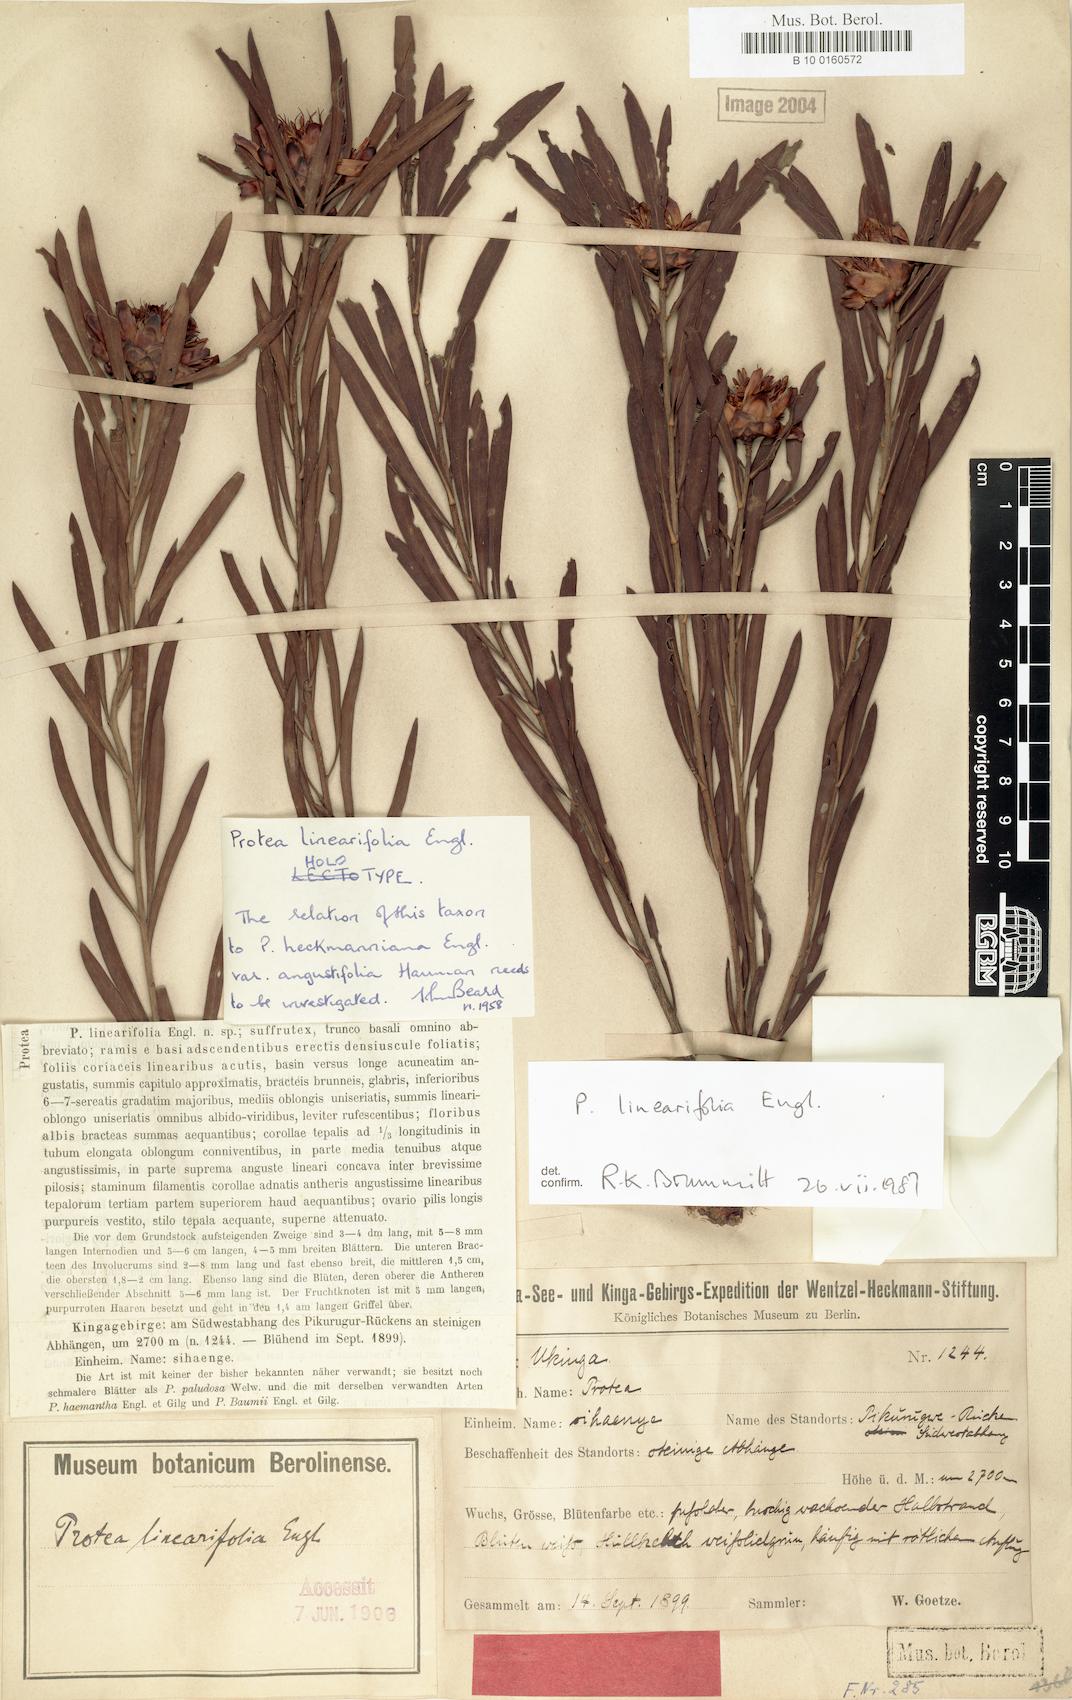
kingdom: Plantae
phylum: Tracheophyta
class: Magnoliopsida
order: Proteales
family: Proteaceae
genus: Protea
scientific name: Protea linearifolia
